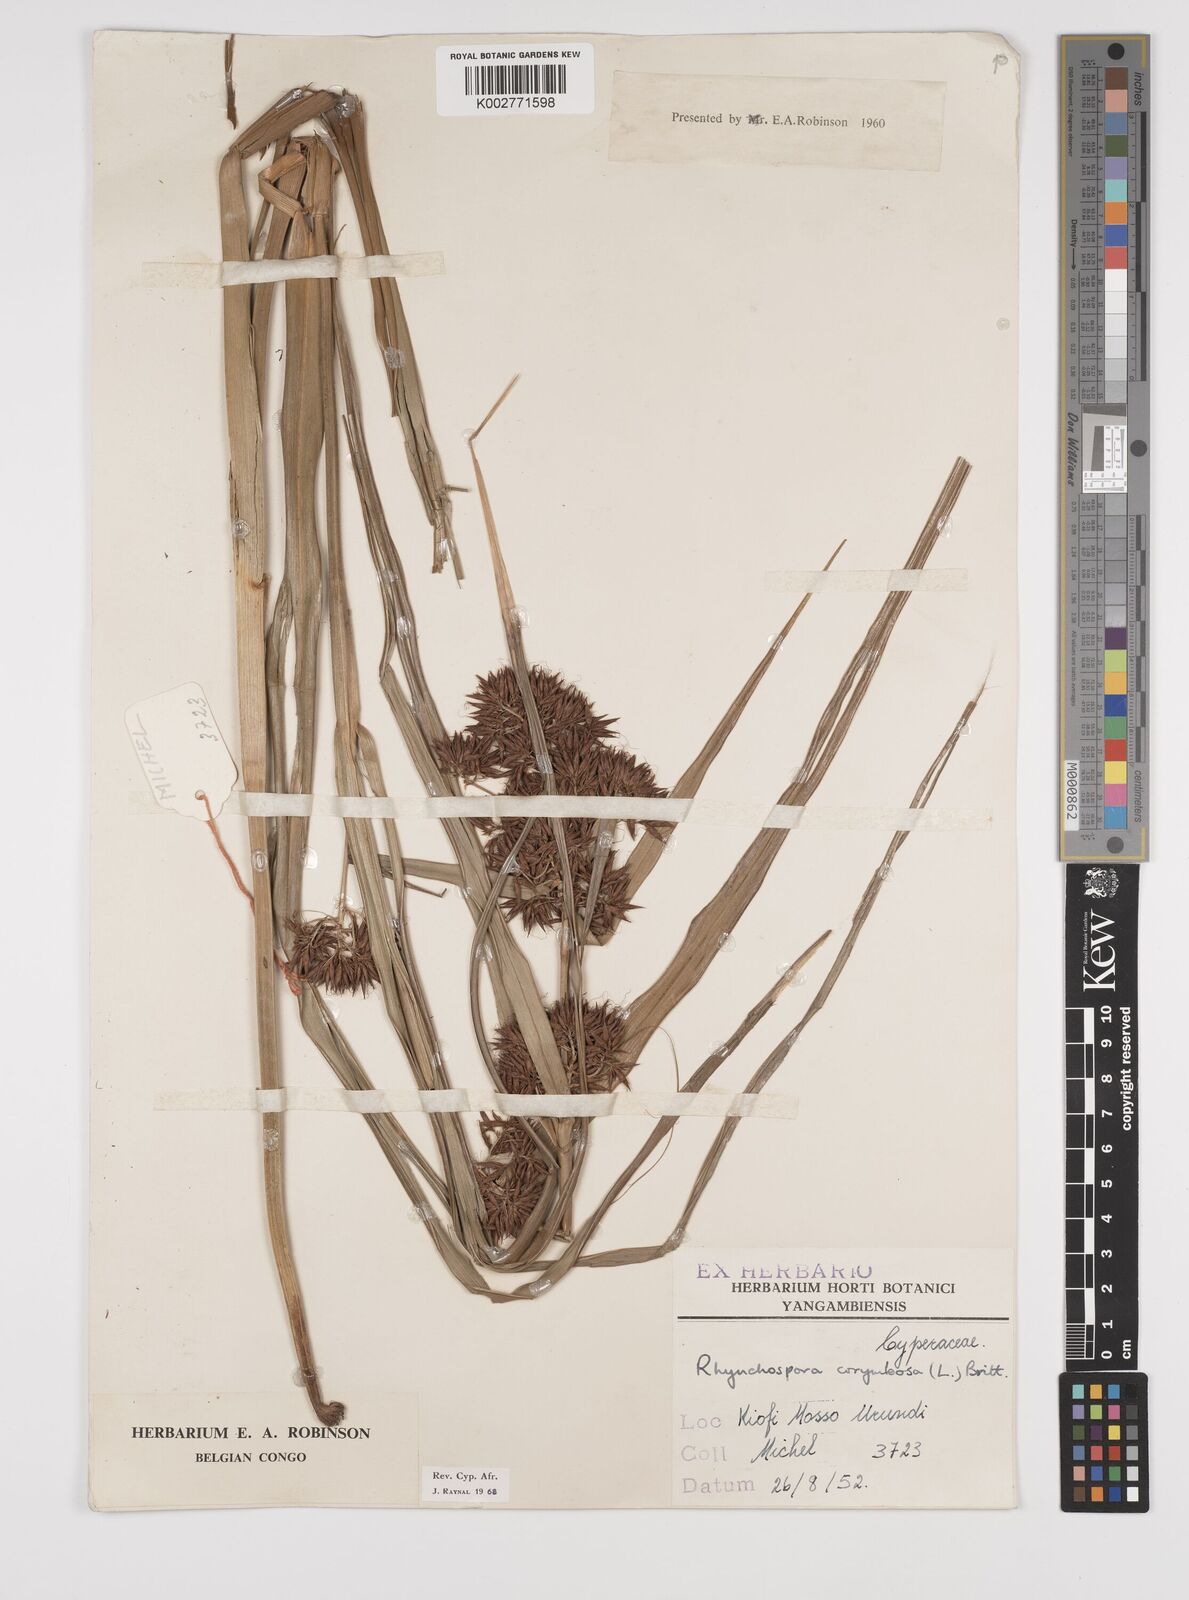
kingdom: Plantae
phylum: Tracheophyta
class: Liliopsida
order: Poales
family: Cyperaceae
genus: Rhynchospora
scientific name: Rhynchospora corymbosa
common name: Golden beak sedge
